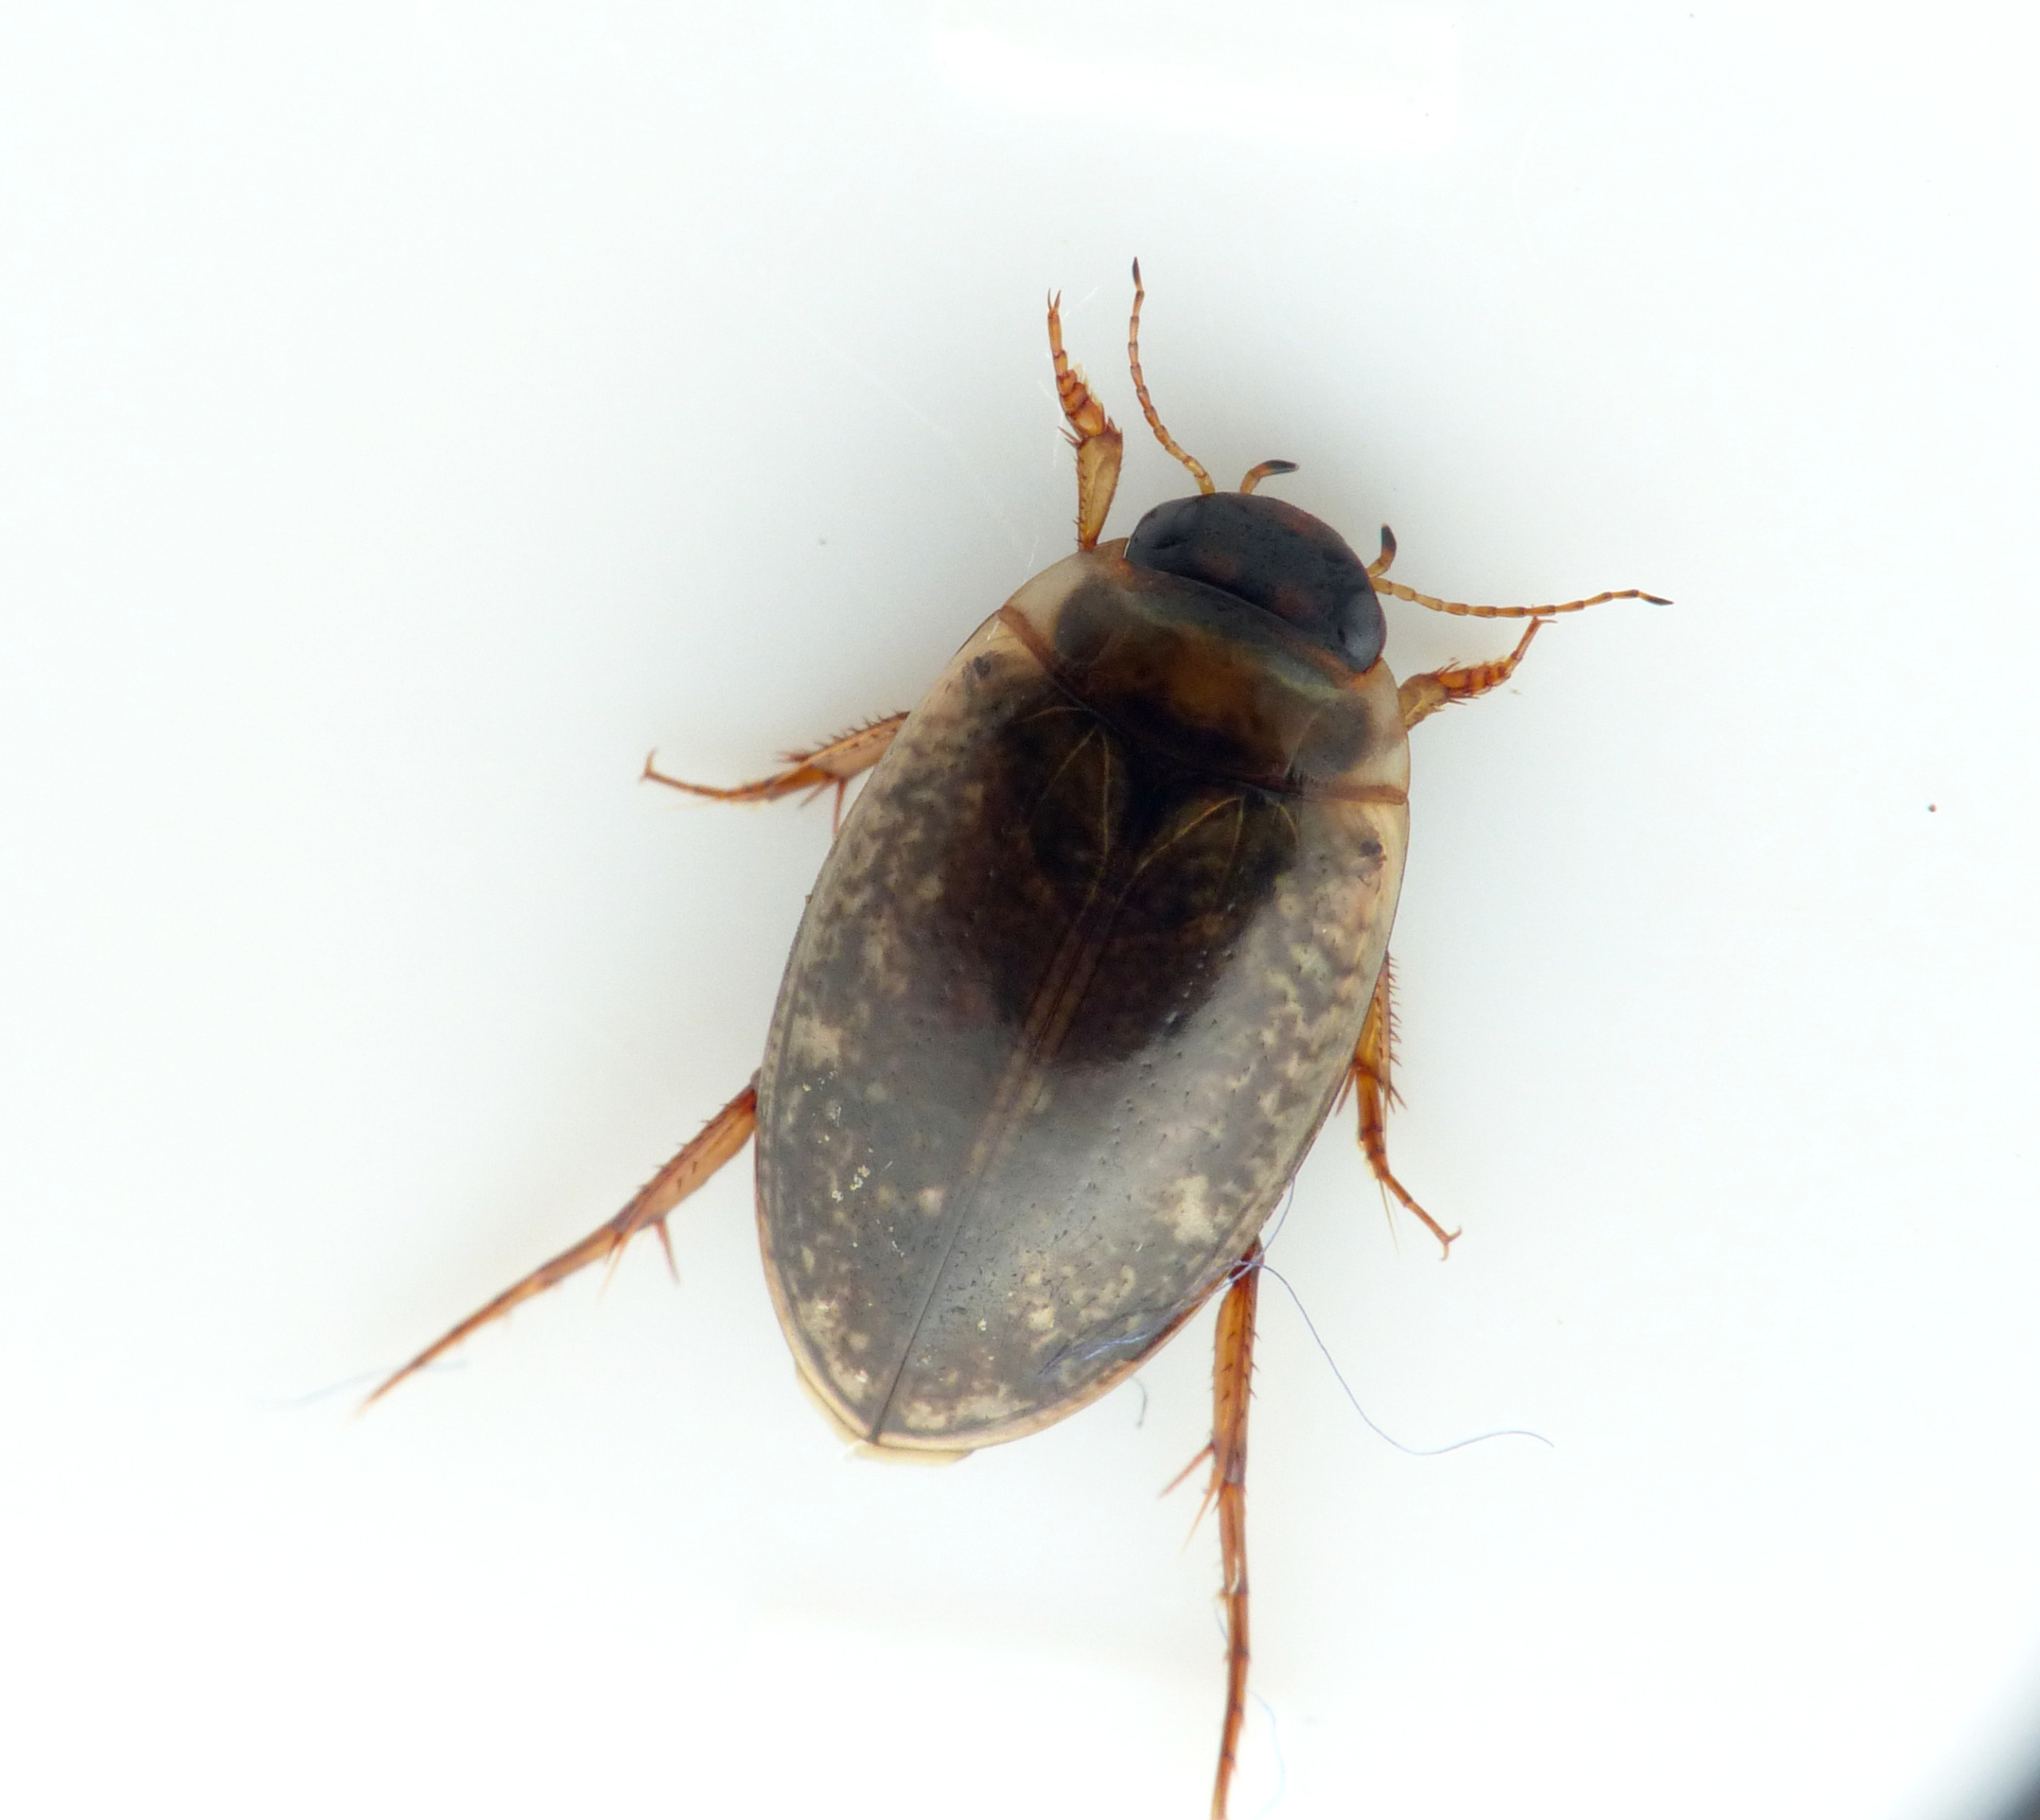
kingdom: Animalia
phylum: Arthropoda
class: Insecta
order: Coleoptera
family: Dytiscidae
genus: Agabus
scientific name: Agabus nebulosus
